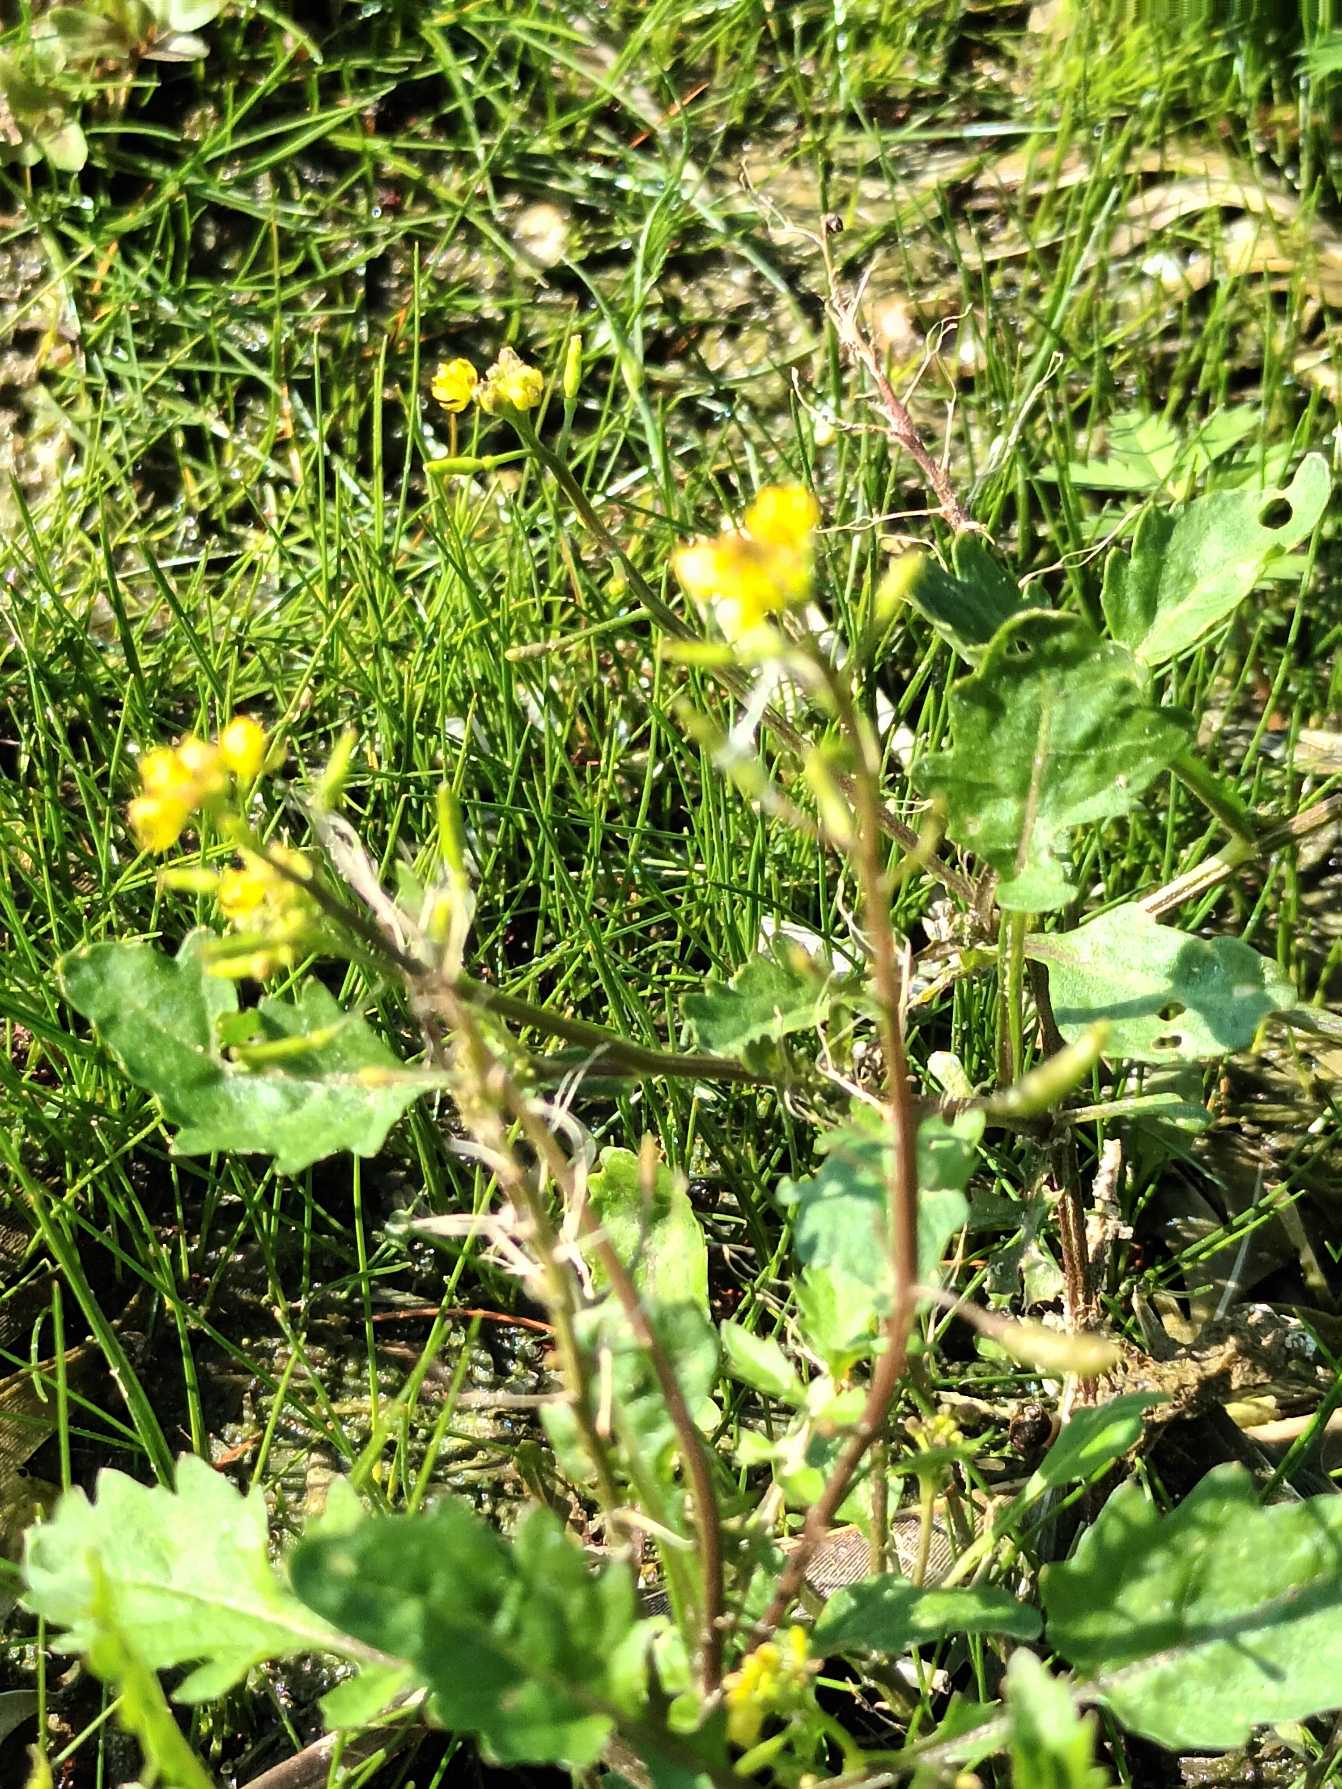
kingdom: Plantae
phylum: Tracheophyta
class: Magnoliopsida
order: Brassicales
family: Brassicaceae
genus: Rorippa
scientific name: Rorippa palustris
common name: Kær-guldkarse
